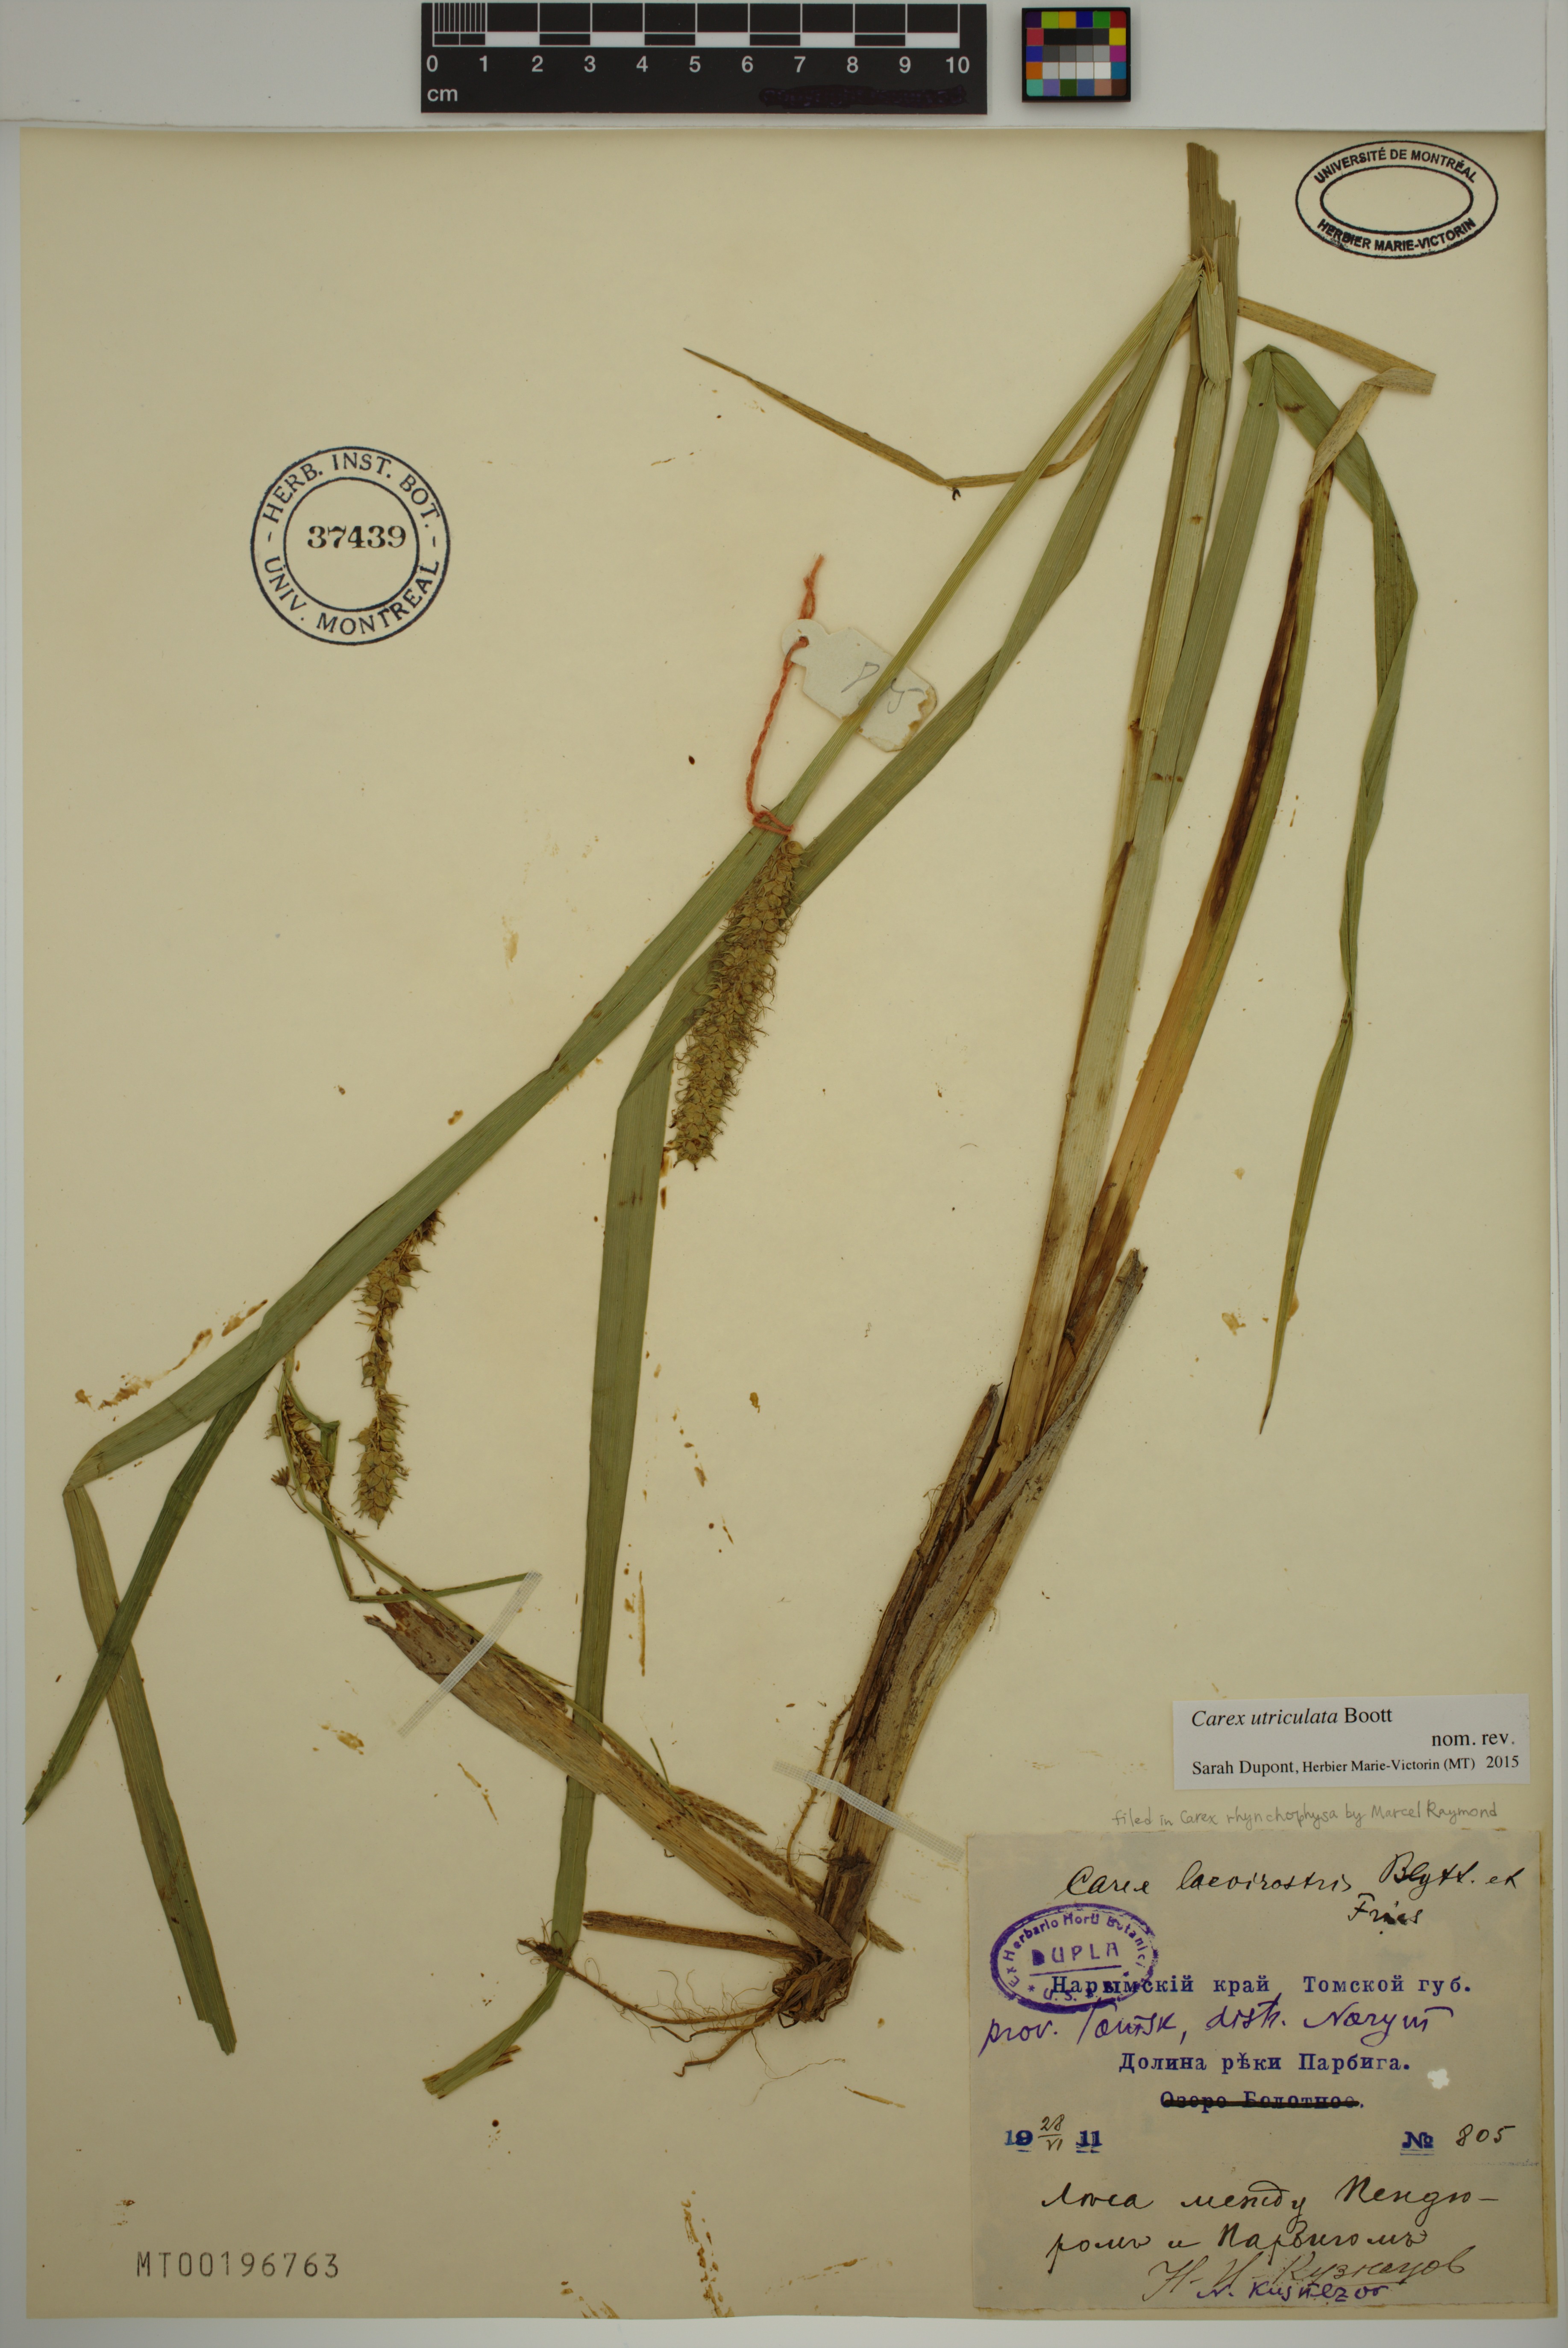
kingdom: Plantae
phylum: Tracheophyta
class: Liliopsida
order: Poales
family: Cyperaceae
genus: Carex
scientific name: Carex utriculata
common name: Beaked sedge
